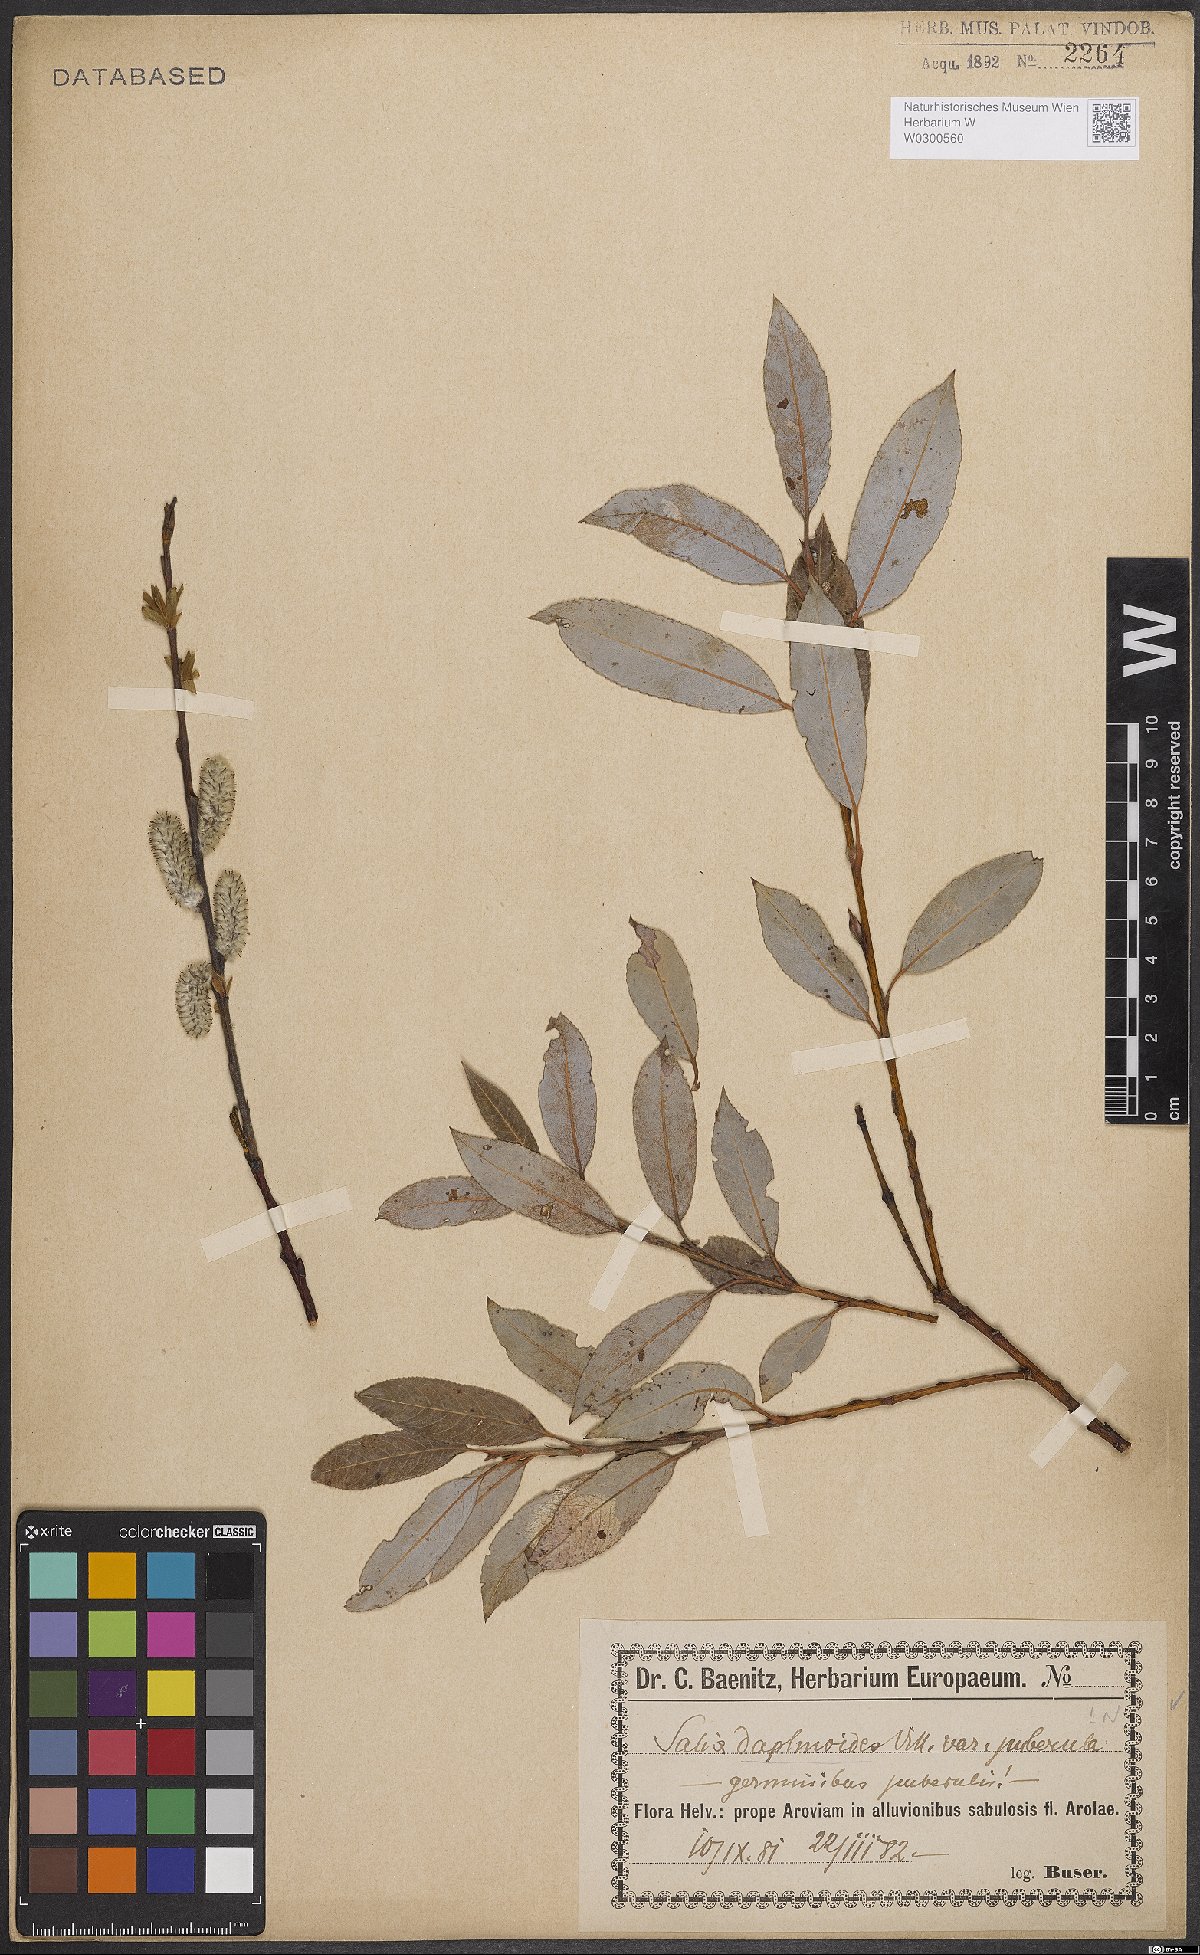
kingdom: Plantae
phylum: Tracheophyta
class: Magnoliopsida
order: Malpighiales
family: Salicaceae
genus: Salix
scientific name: Salix daphnoides
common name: European violet-willow
